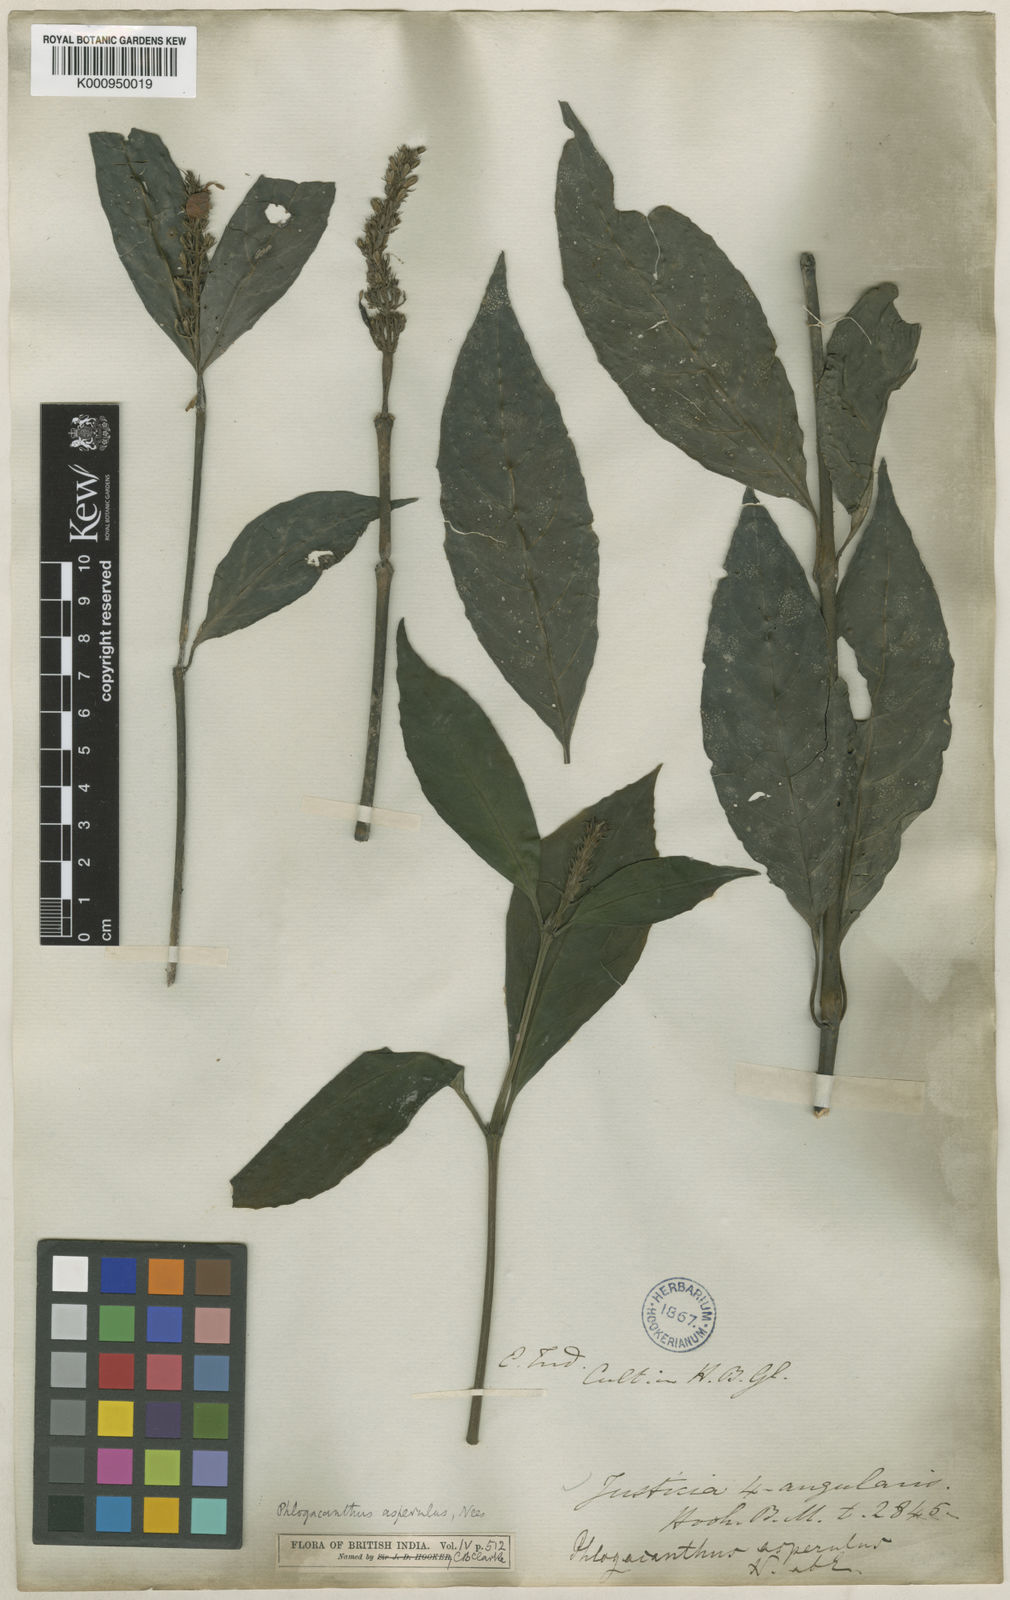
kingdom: Plantae
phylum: Tracheophyta
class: Magnoliopsida
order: Lamiales
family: Acanthaceae
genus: Phlogacanthus
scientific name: Phlogacanthus vitellinus
